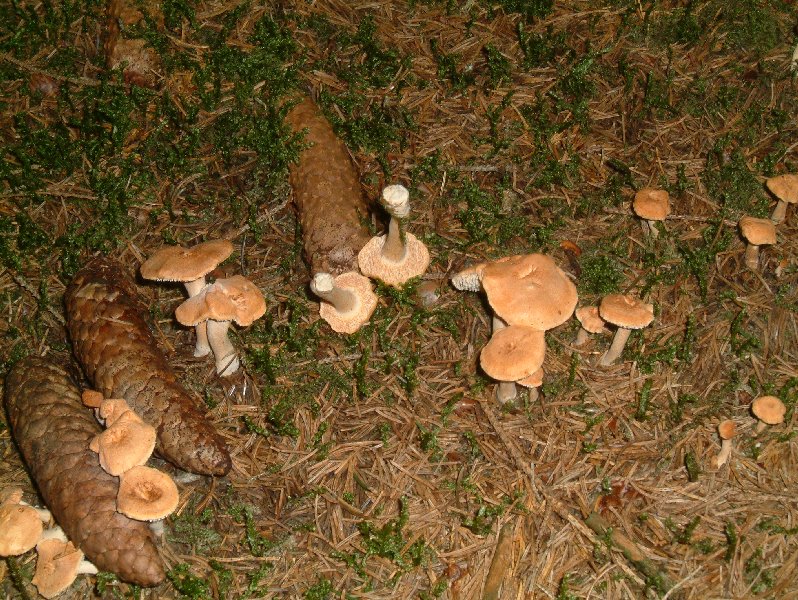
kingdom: Fungi
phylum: Basidiomycota
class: Agaricomycetes
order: Cantharellales
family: Hydnaceae
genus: Hydnum
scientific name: Hydnum rufescens
